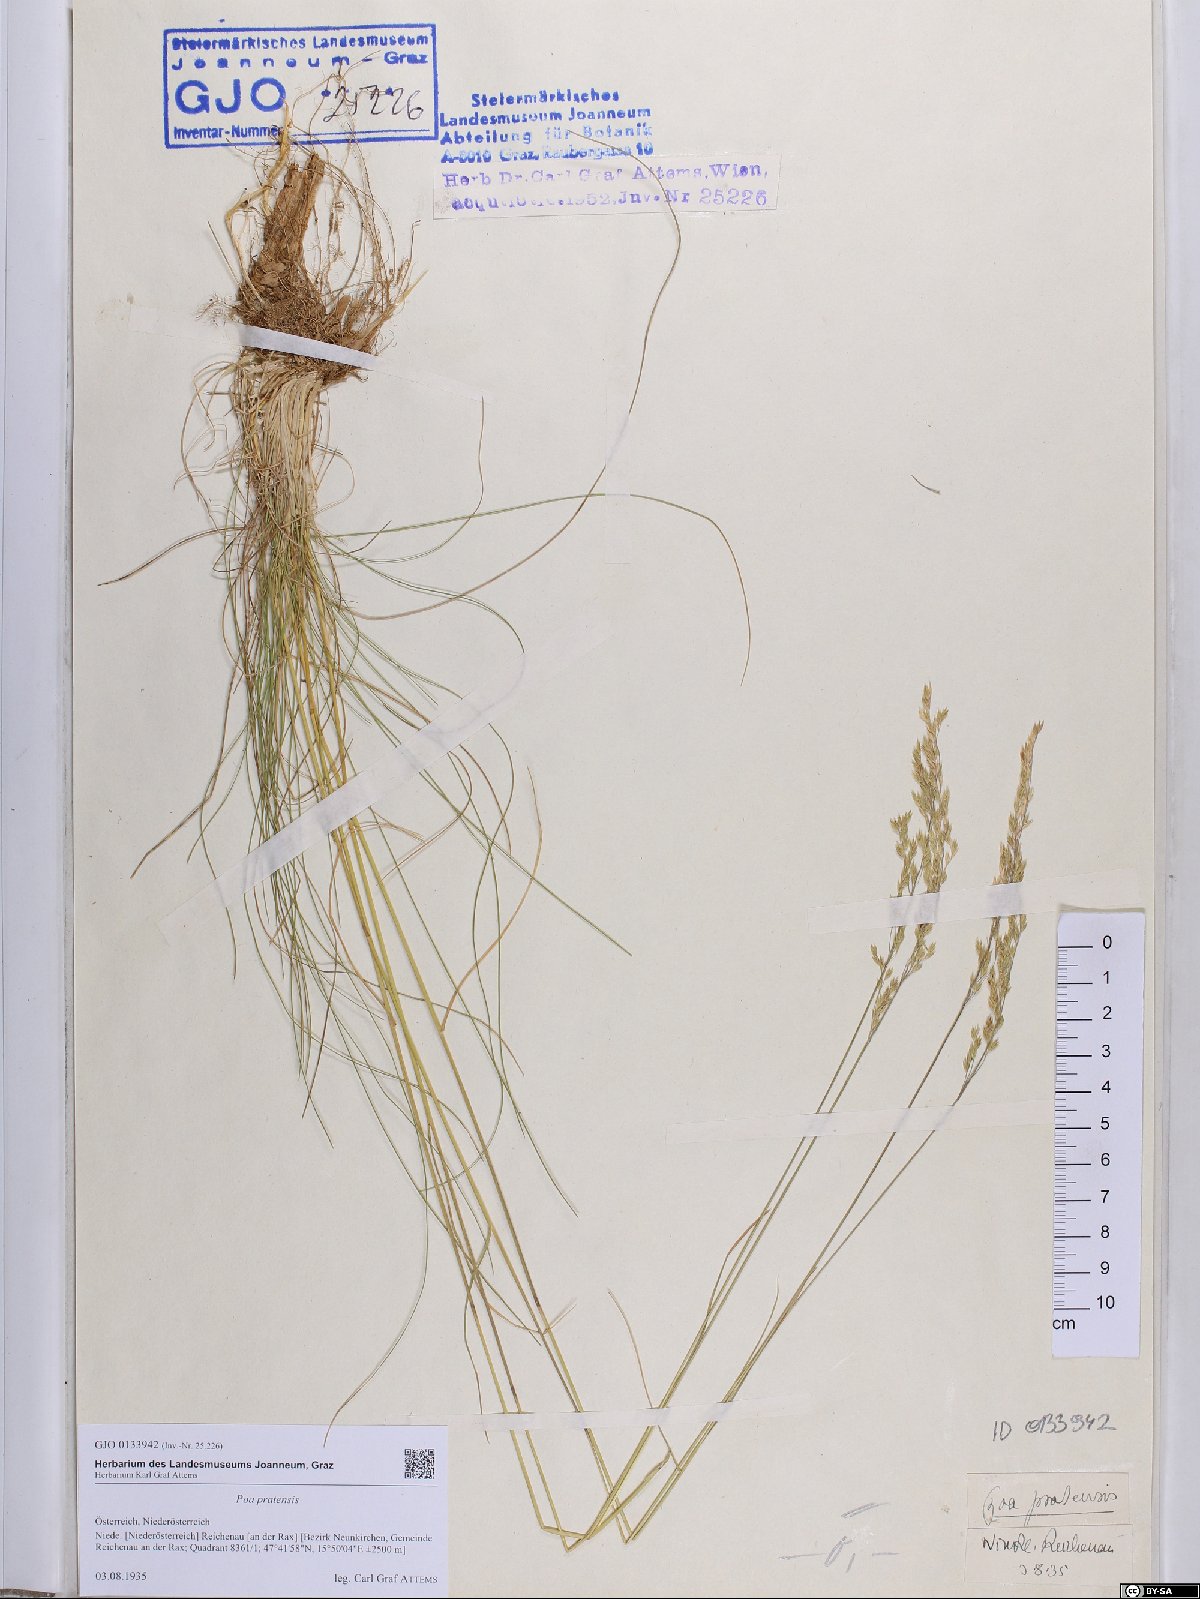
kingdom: Plantae
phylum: Tracheophyta
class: Liliopsida
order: Poales
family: Poaceae
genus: Poa
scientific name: Poa pratensis
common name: Kentucky bluegrass
